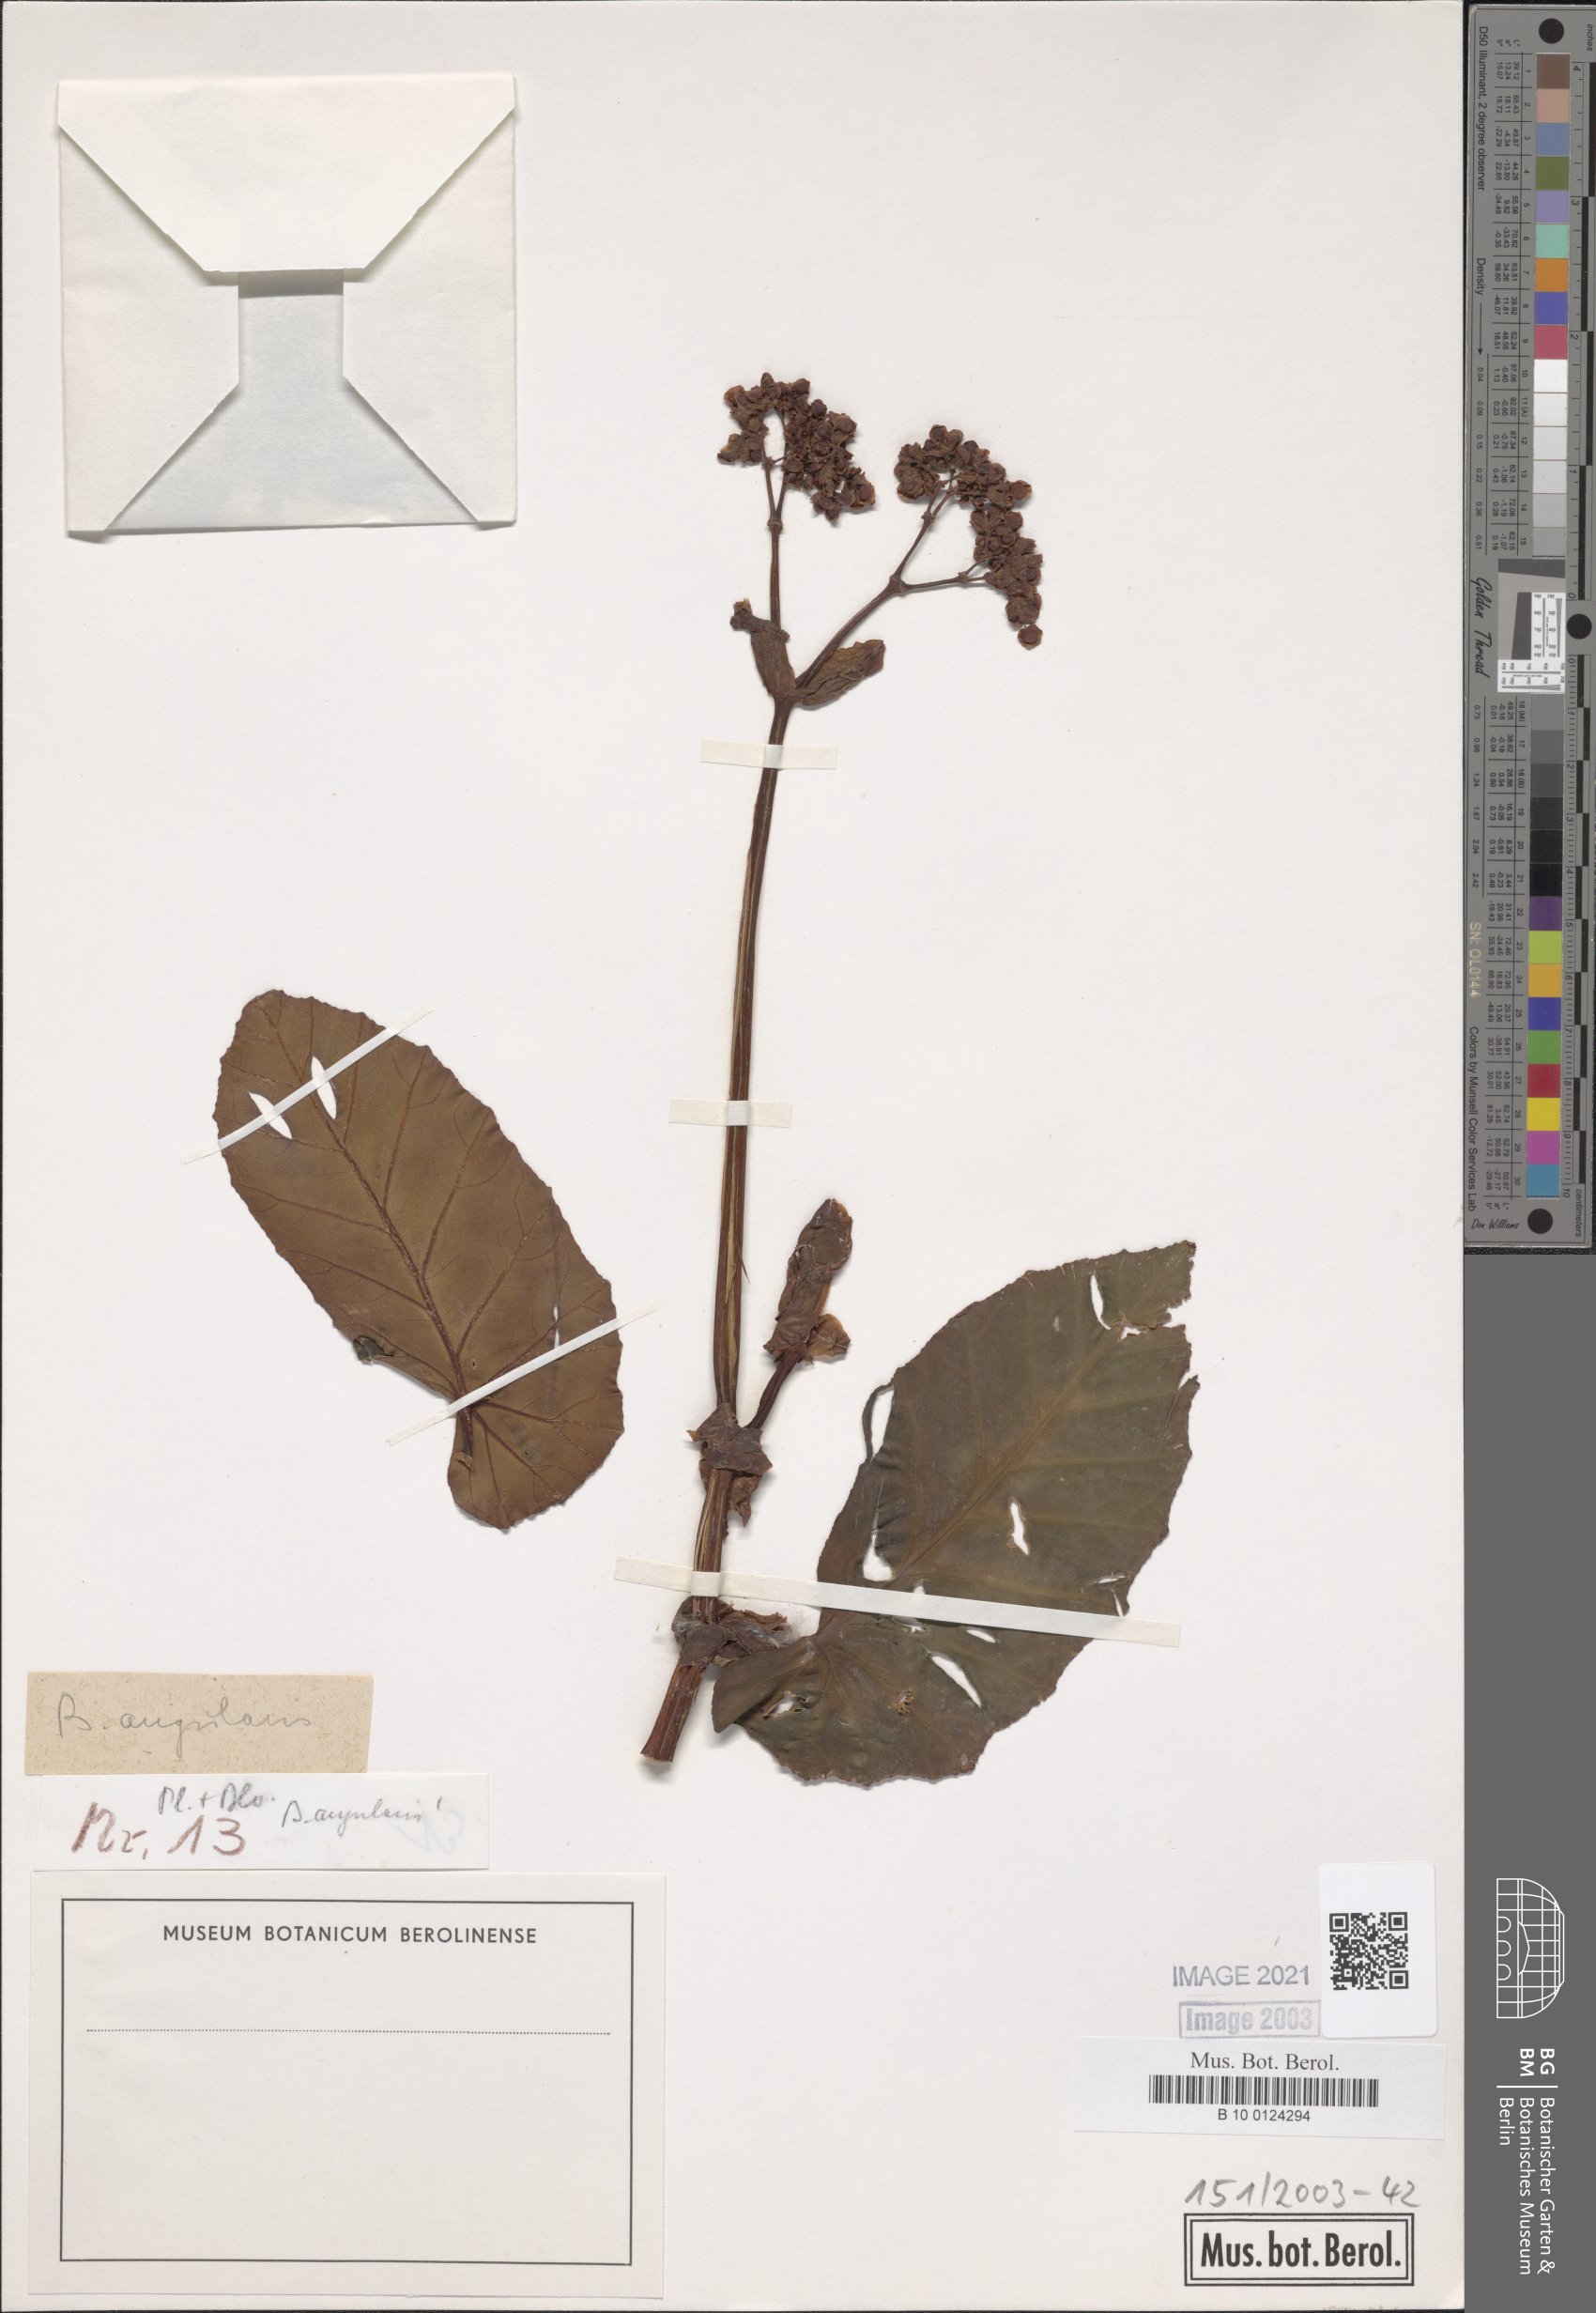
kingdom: Plantae
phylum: Tracheophyta
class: Magnoliopsida
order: Cucurbitales
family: Begoniaceae
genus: Begonia
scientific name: Begonia angularis
